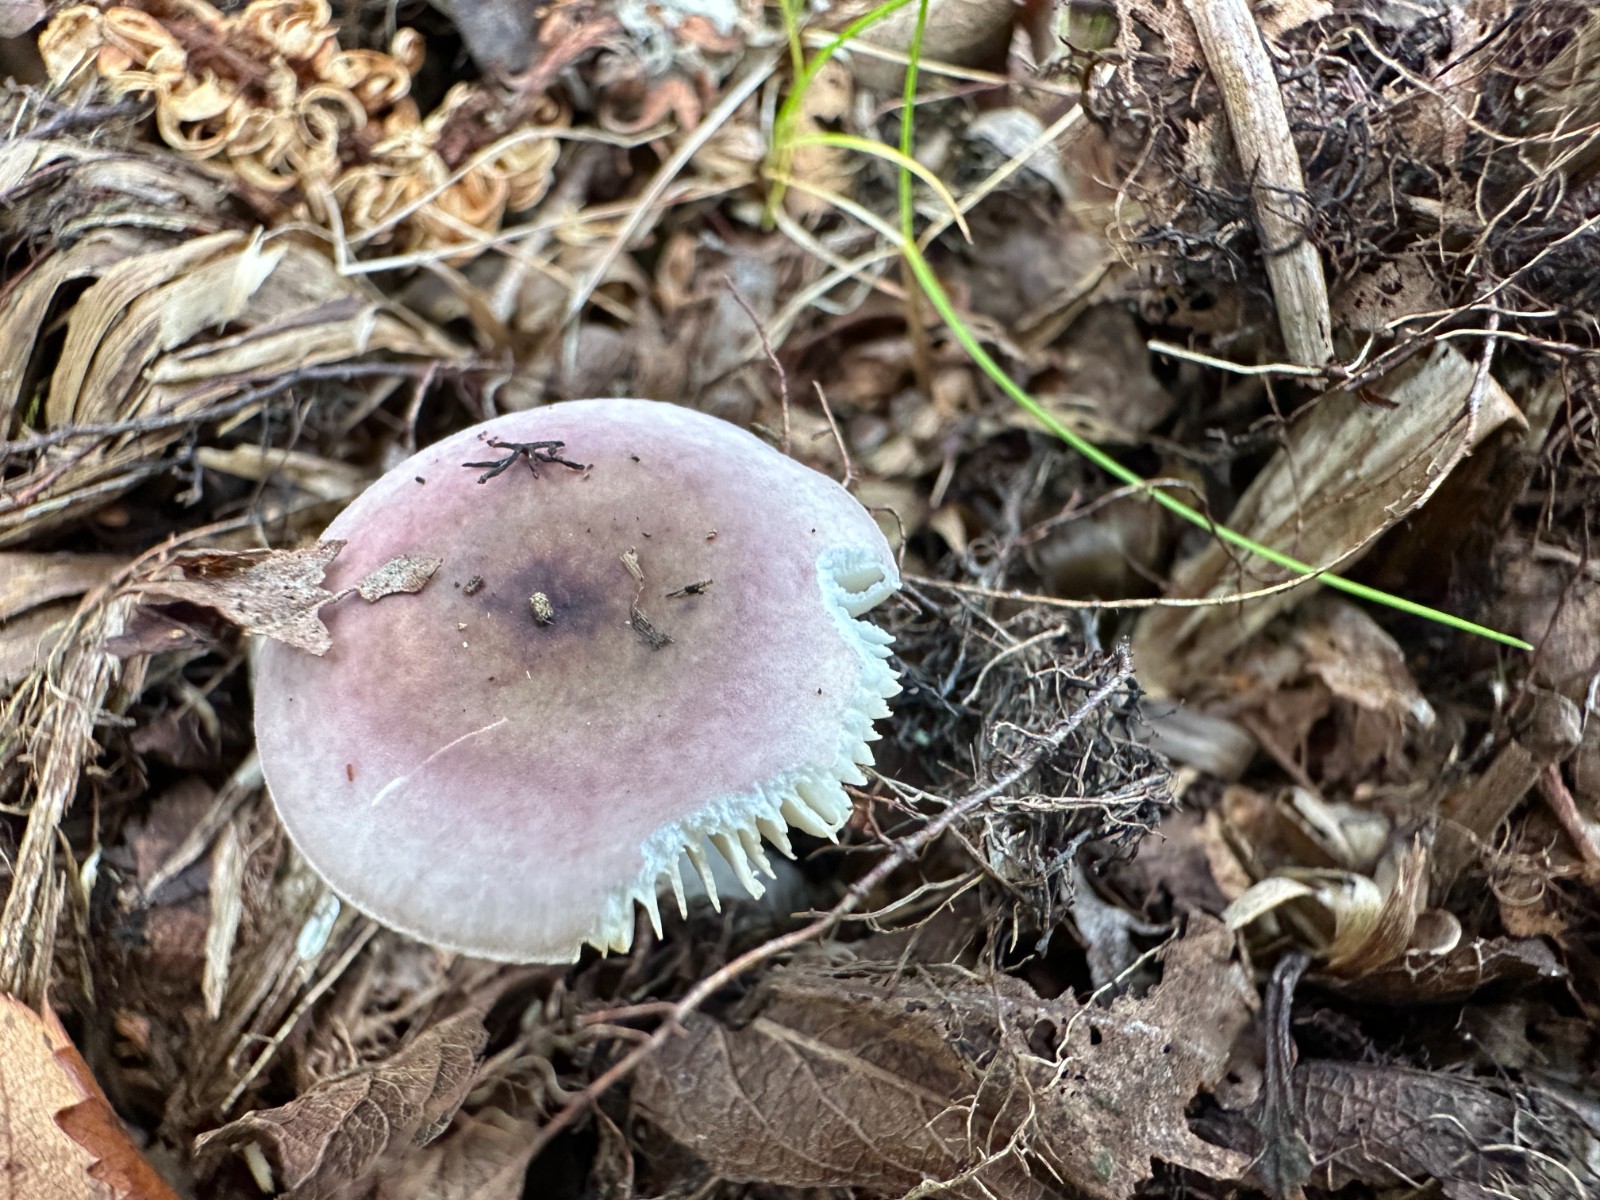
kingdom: Fungi
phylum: Basidiomycota
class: Agaricomycetes
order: Russulales
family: Russulaceae
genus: Russula
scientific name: Russula gracillima
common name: slank skørhat
